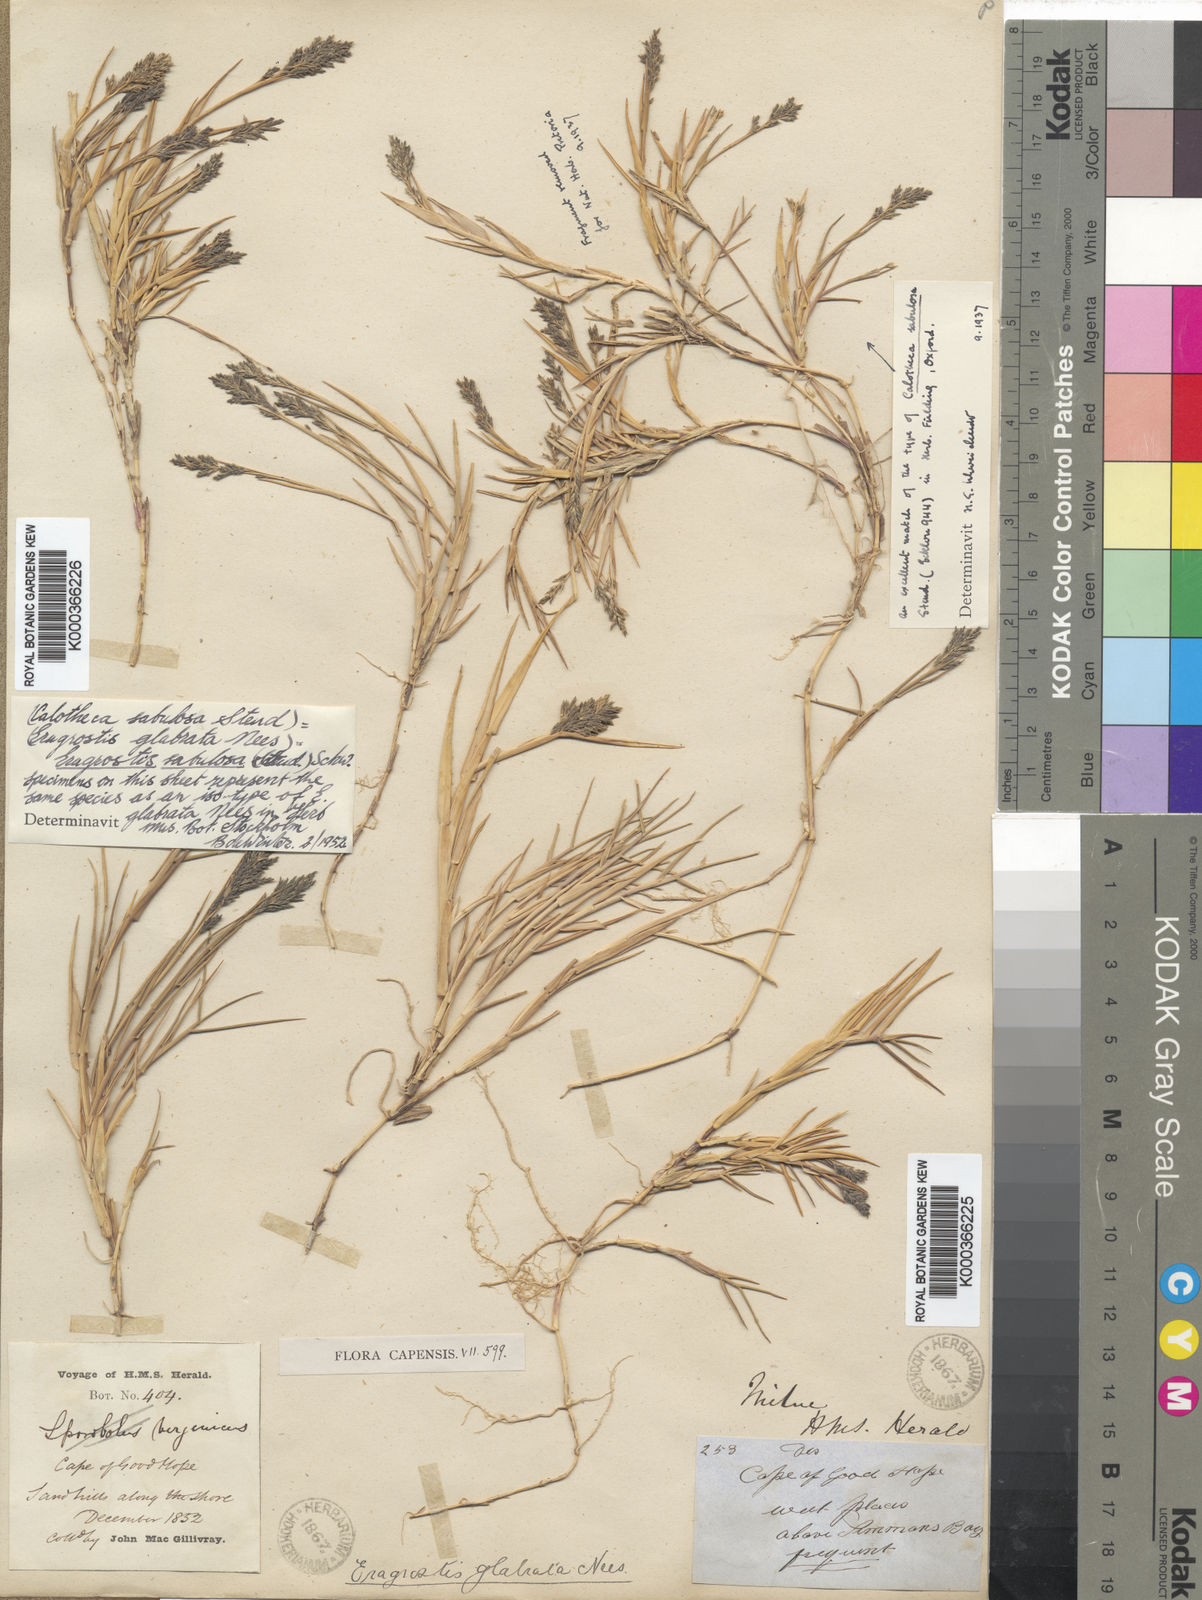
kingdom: Plantae
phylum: Tracheophyta
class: Liliopsida
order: Poales
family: Poaceae
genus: Eragrostis
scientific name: Eragrostis sabulosa
